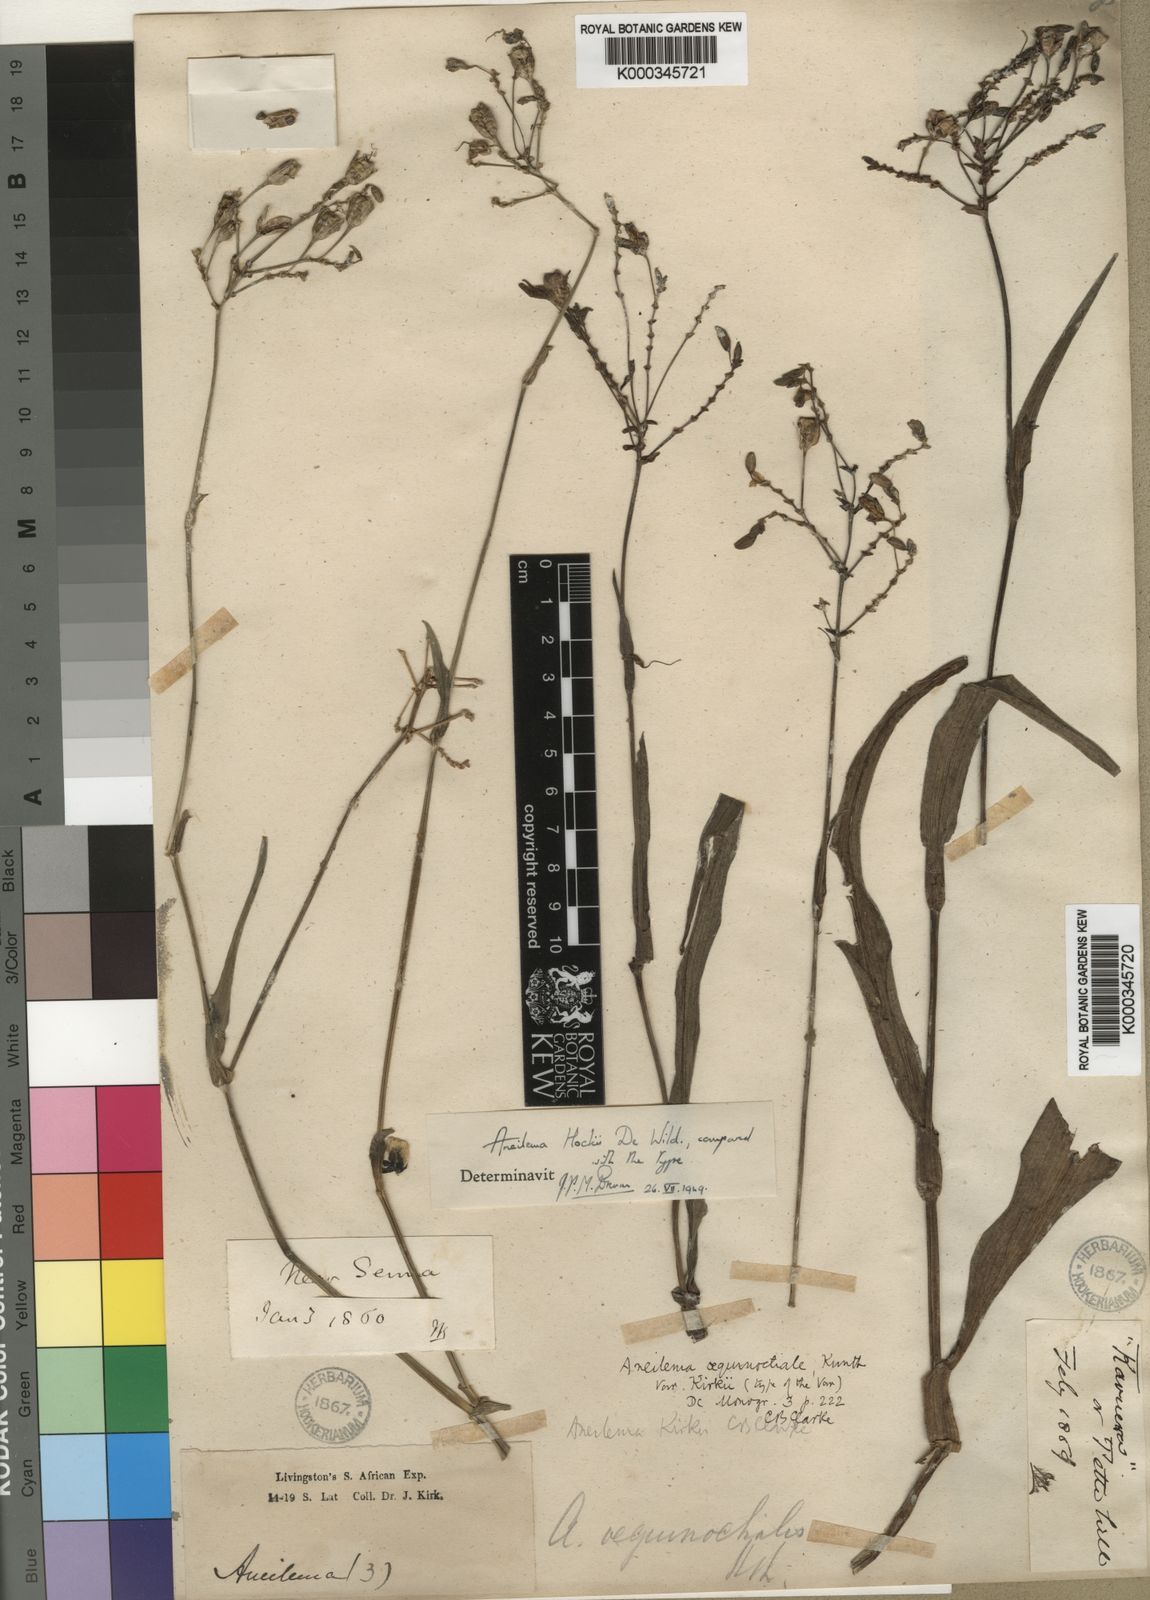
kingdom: Plantae
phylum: Tracheophyta
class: Liliopsida
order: Commelinales
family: Commelinaceae
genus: Aneilema
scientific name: Aneilema hockii
